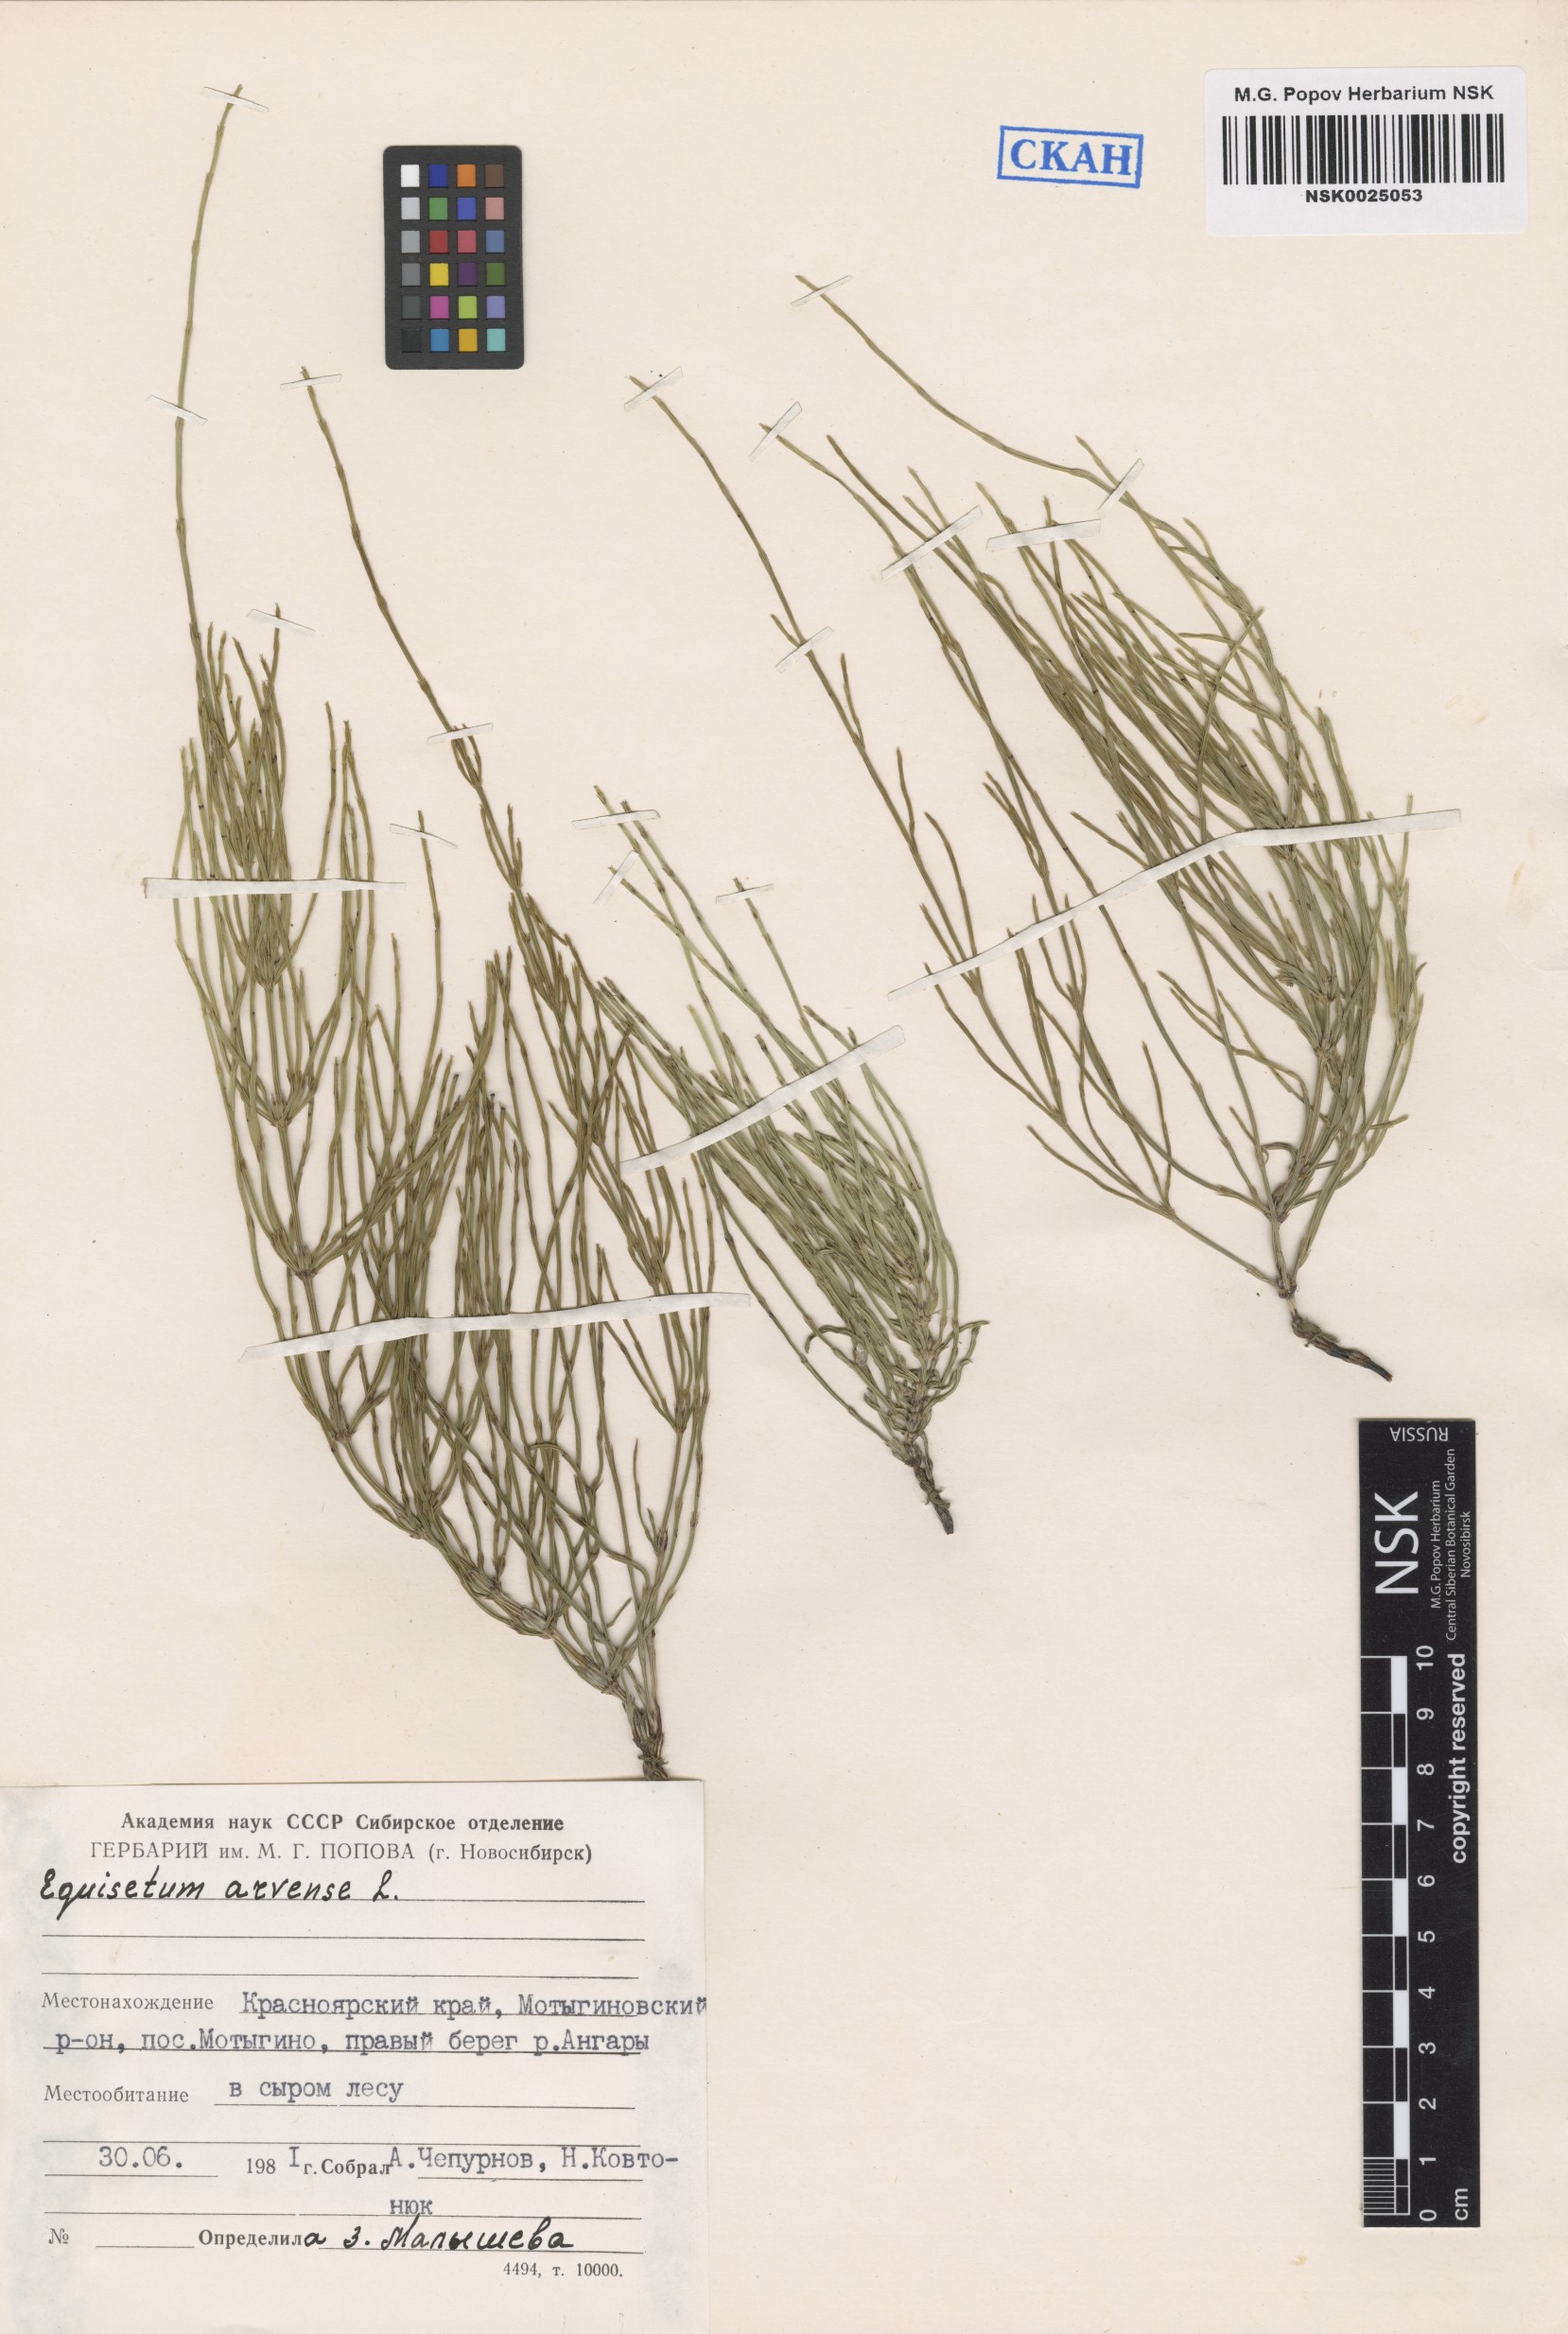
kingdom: Plantae
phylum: Tracheophyta
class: Polypodiopsida
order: Equisetales
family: Equisetaceae
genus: Equisetum
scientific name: Equisetum arvense
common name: Field horsetail
